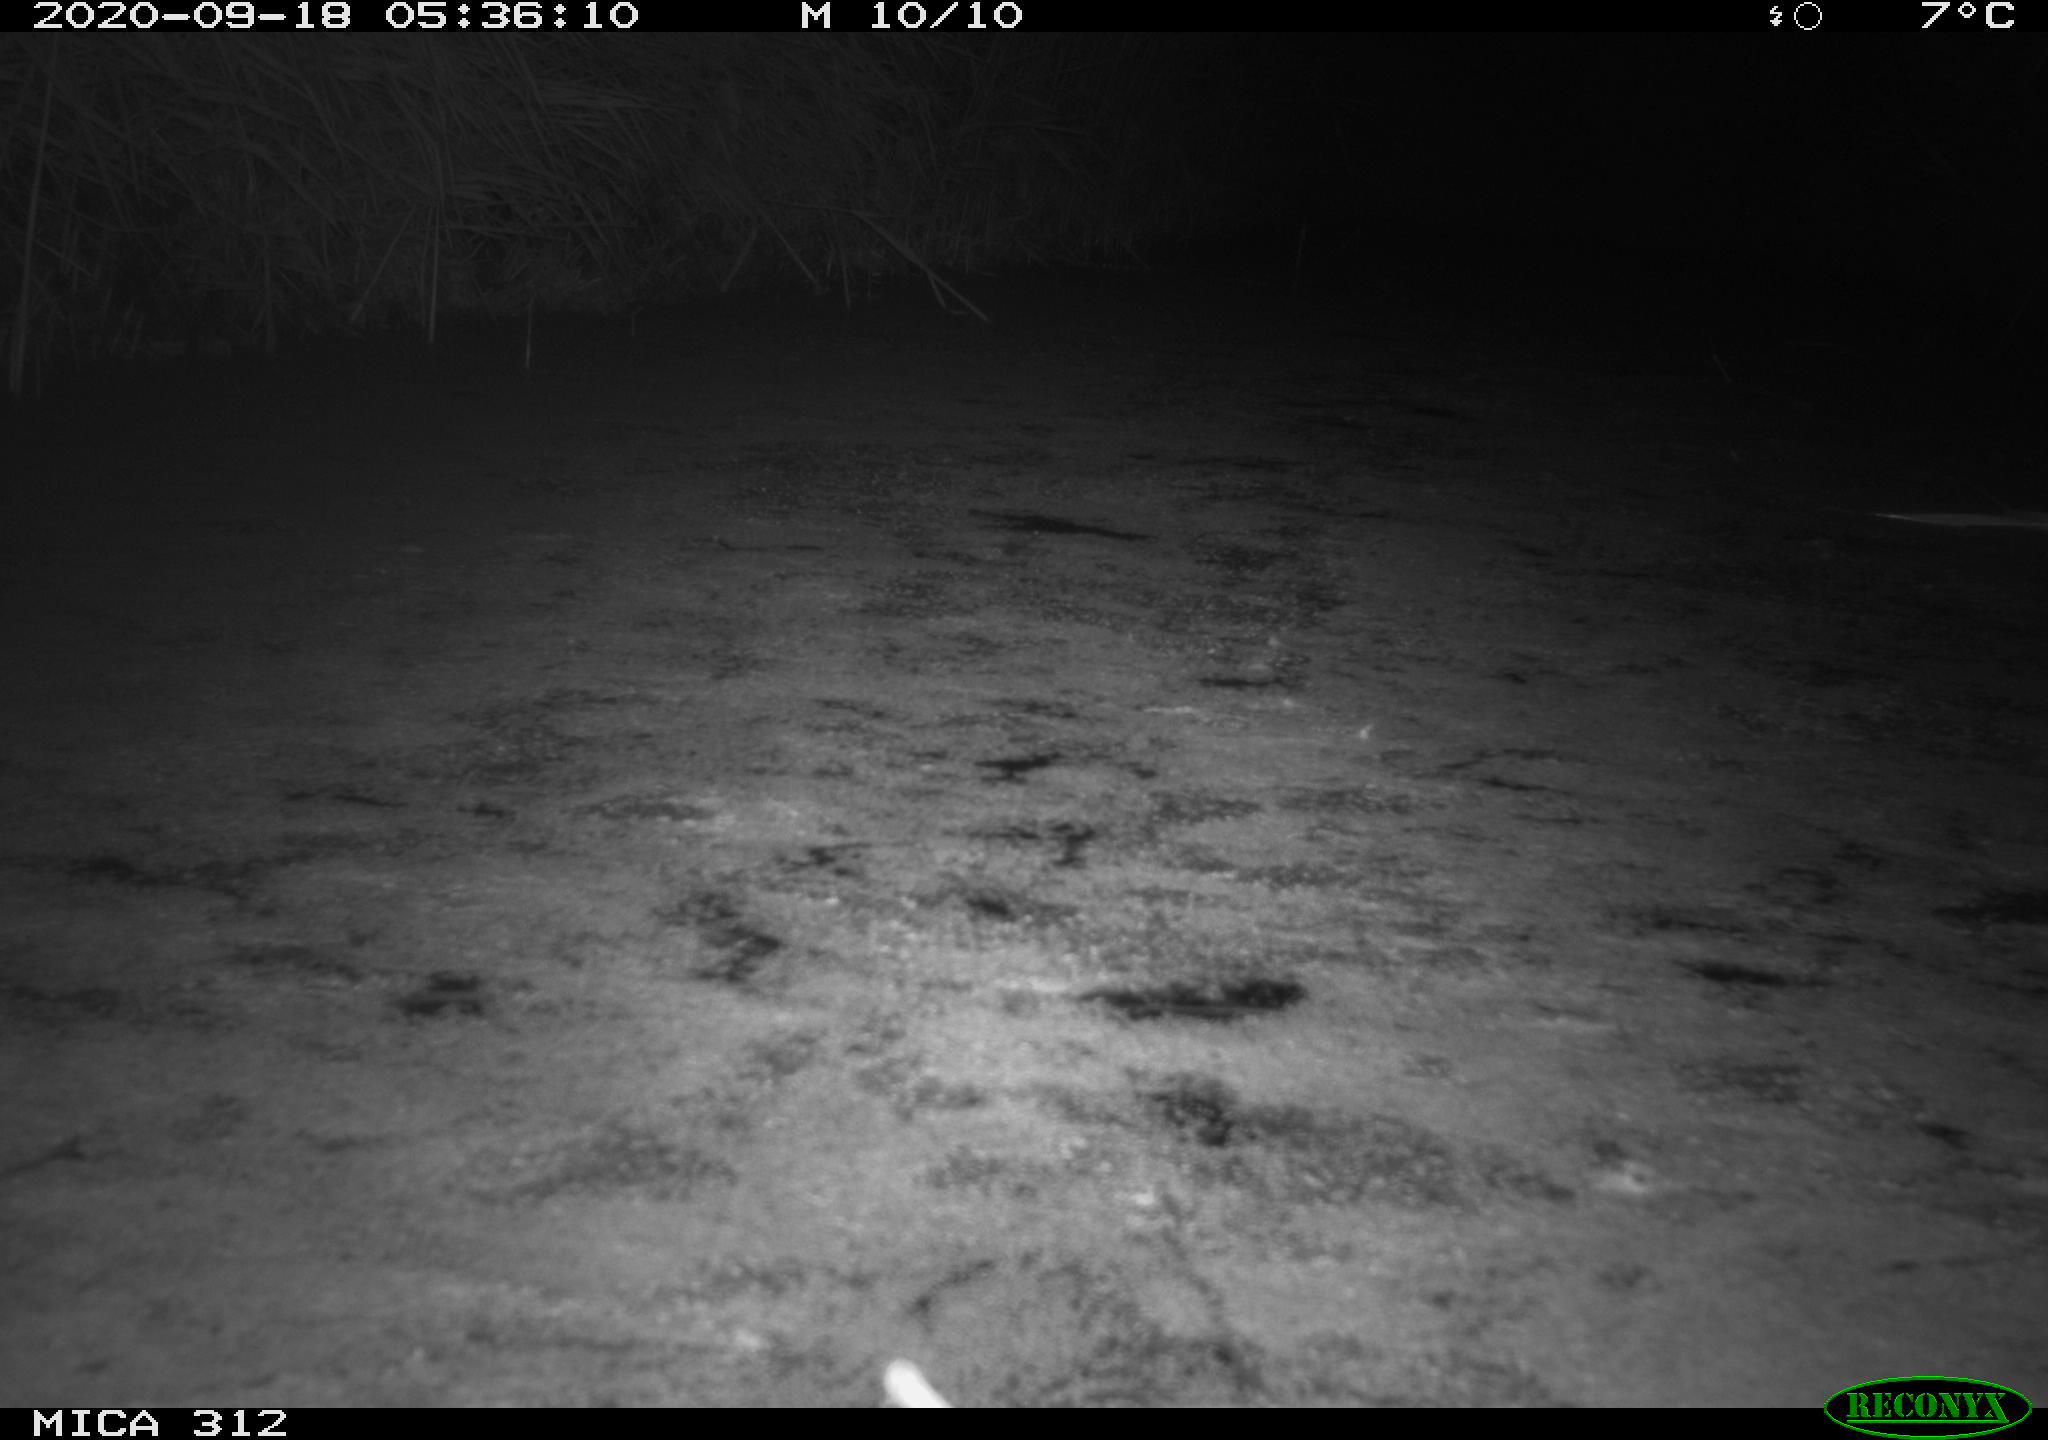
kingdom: Animalia
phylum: Chordata
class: Mammalia
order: Rodentia
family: Muridae
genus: Rattus
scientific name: Rattus norvegicus
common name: Brown rat
